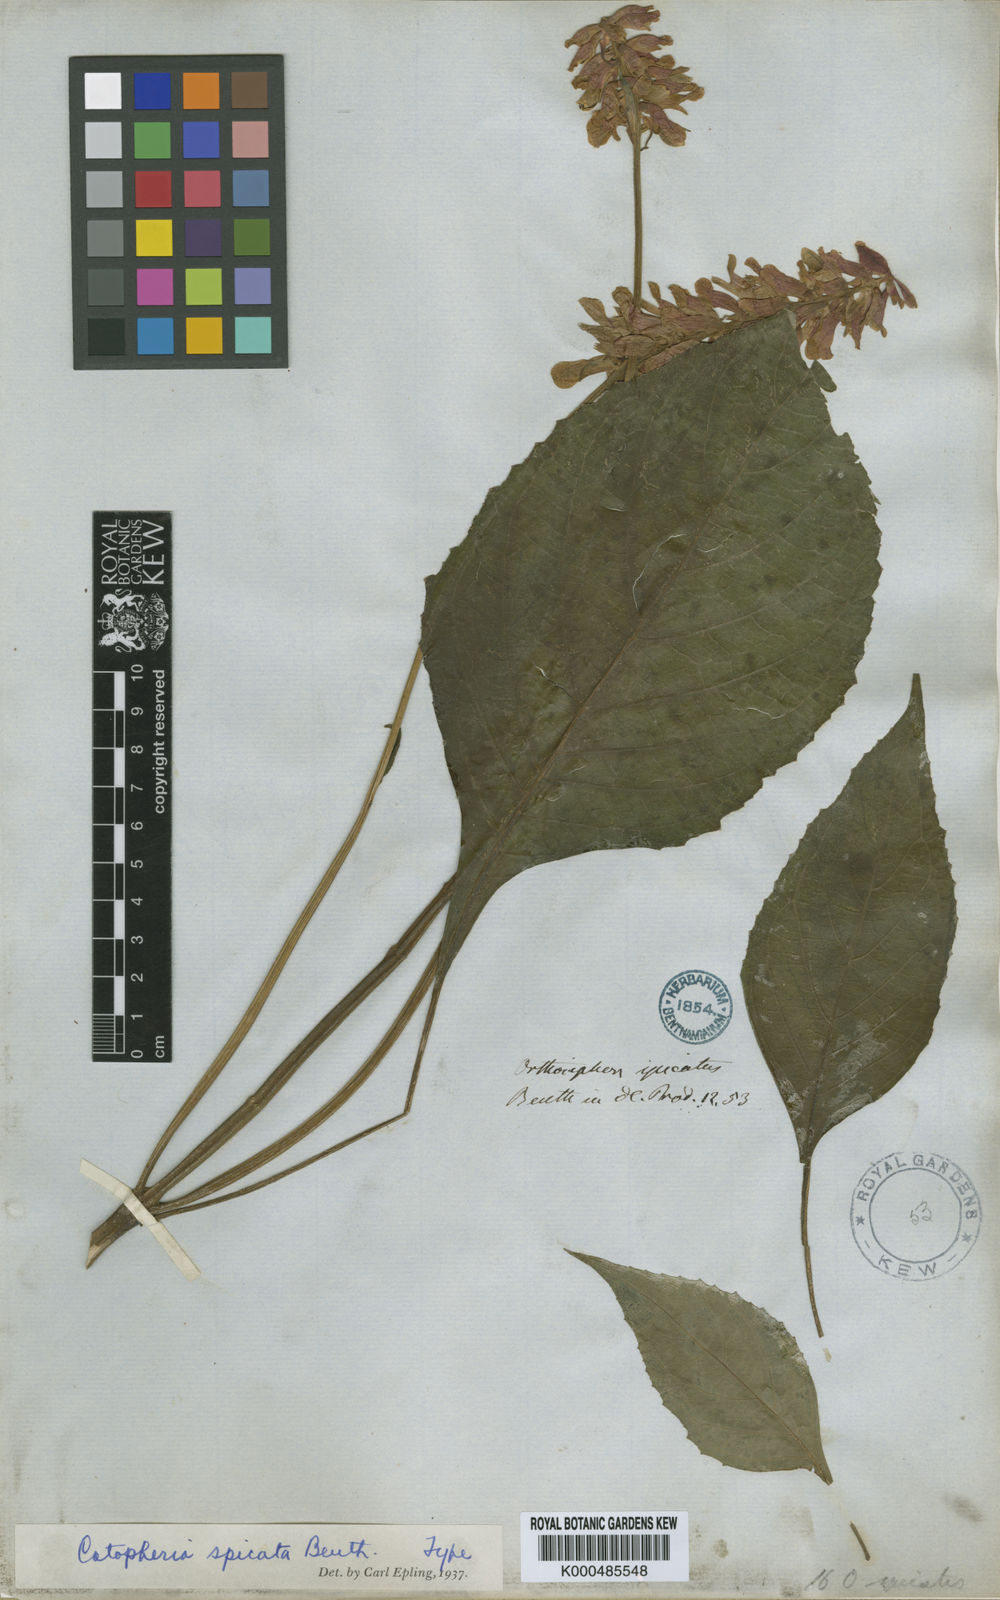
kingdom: Plantae
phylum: Tracheophyta
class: Magnoliopsida
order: Lamiales
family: Lamiaceae
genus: Catoferia
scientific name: Catoferia spicata
